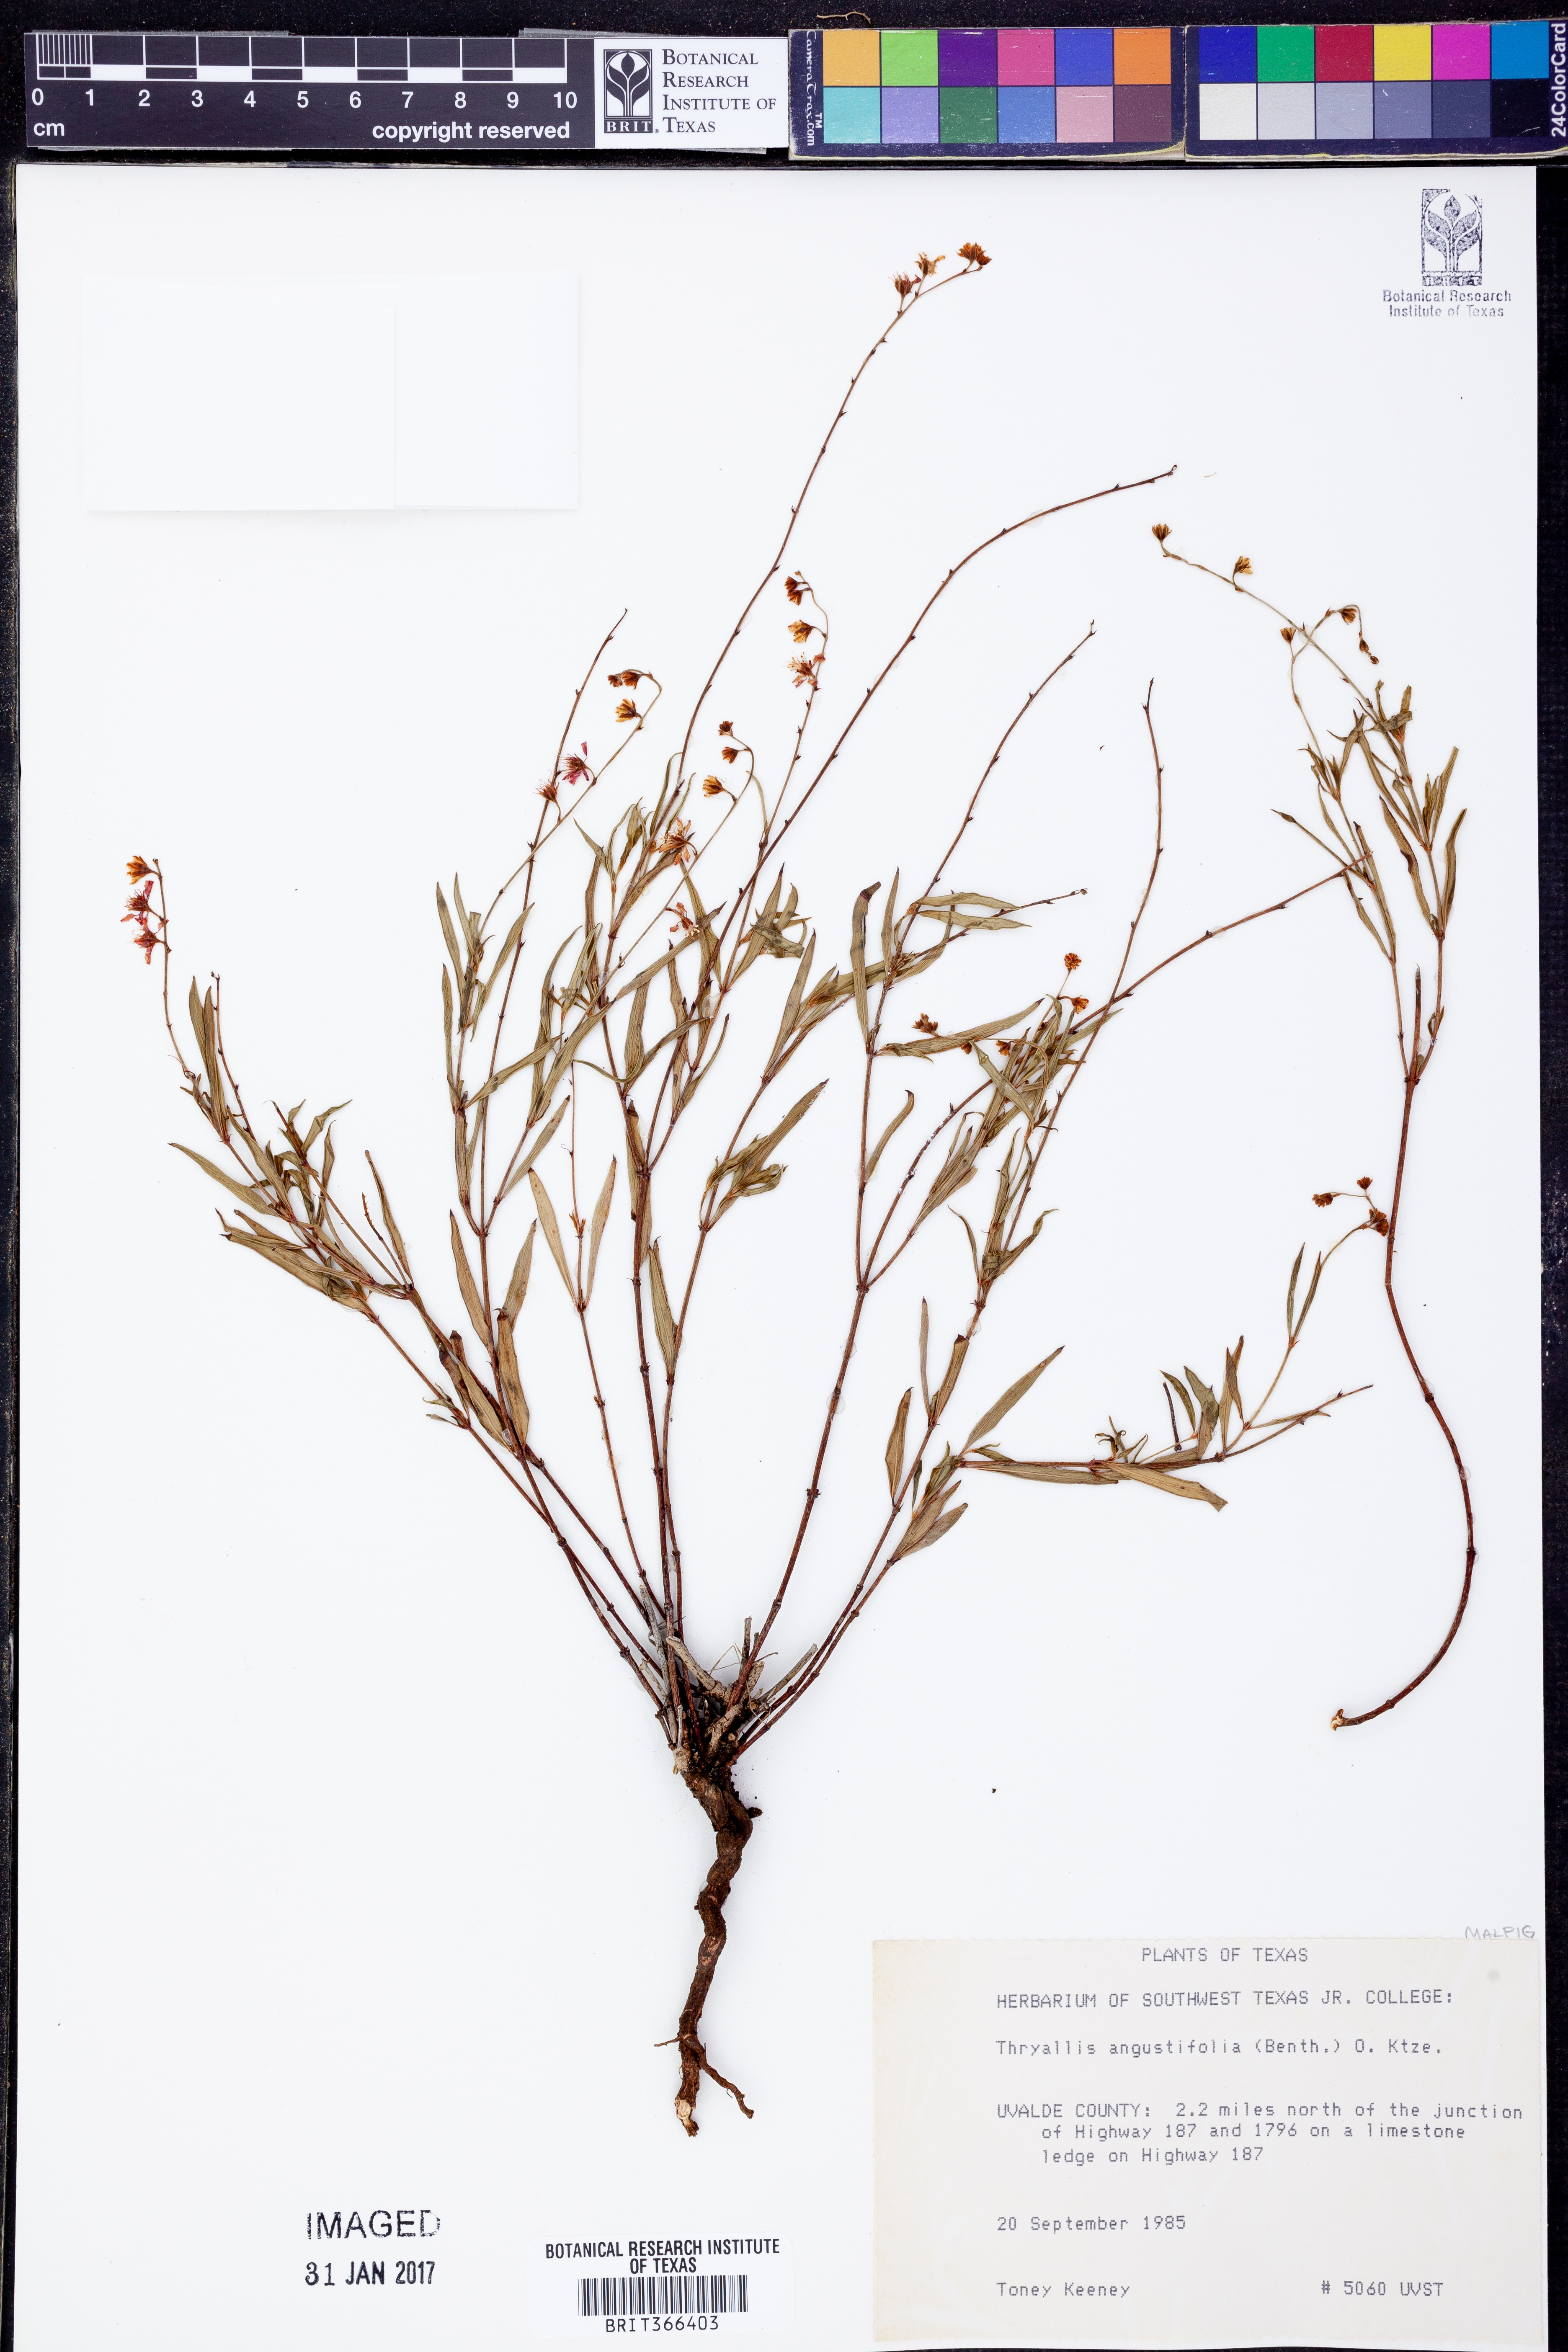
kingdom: Plantae
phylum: Tracheophyta
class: Magnoliopsida
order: Malpighiales
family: Malpighiaceae
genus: Galphimia
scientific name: Galphimia angustifolia
